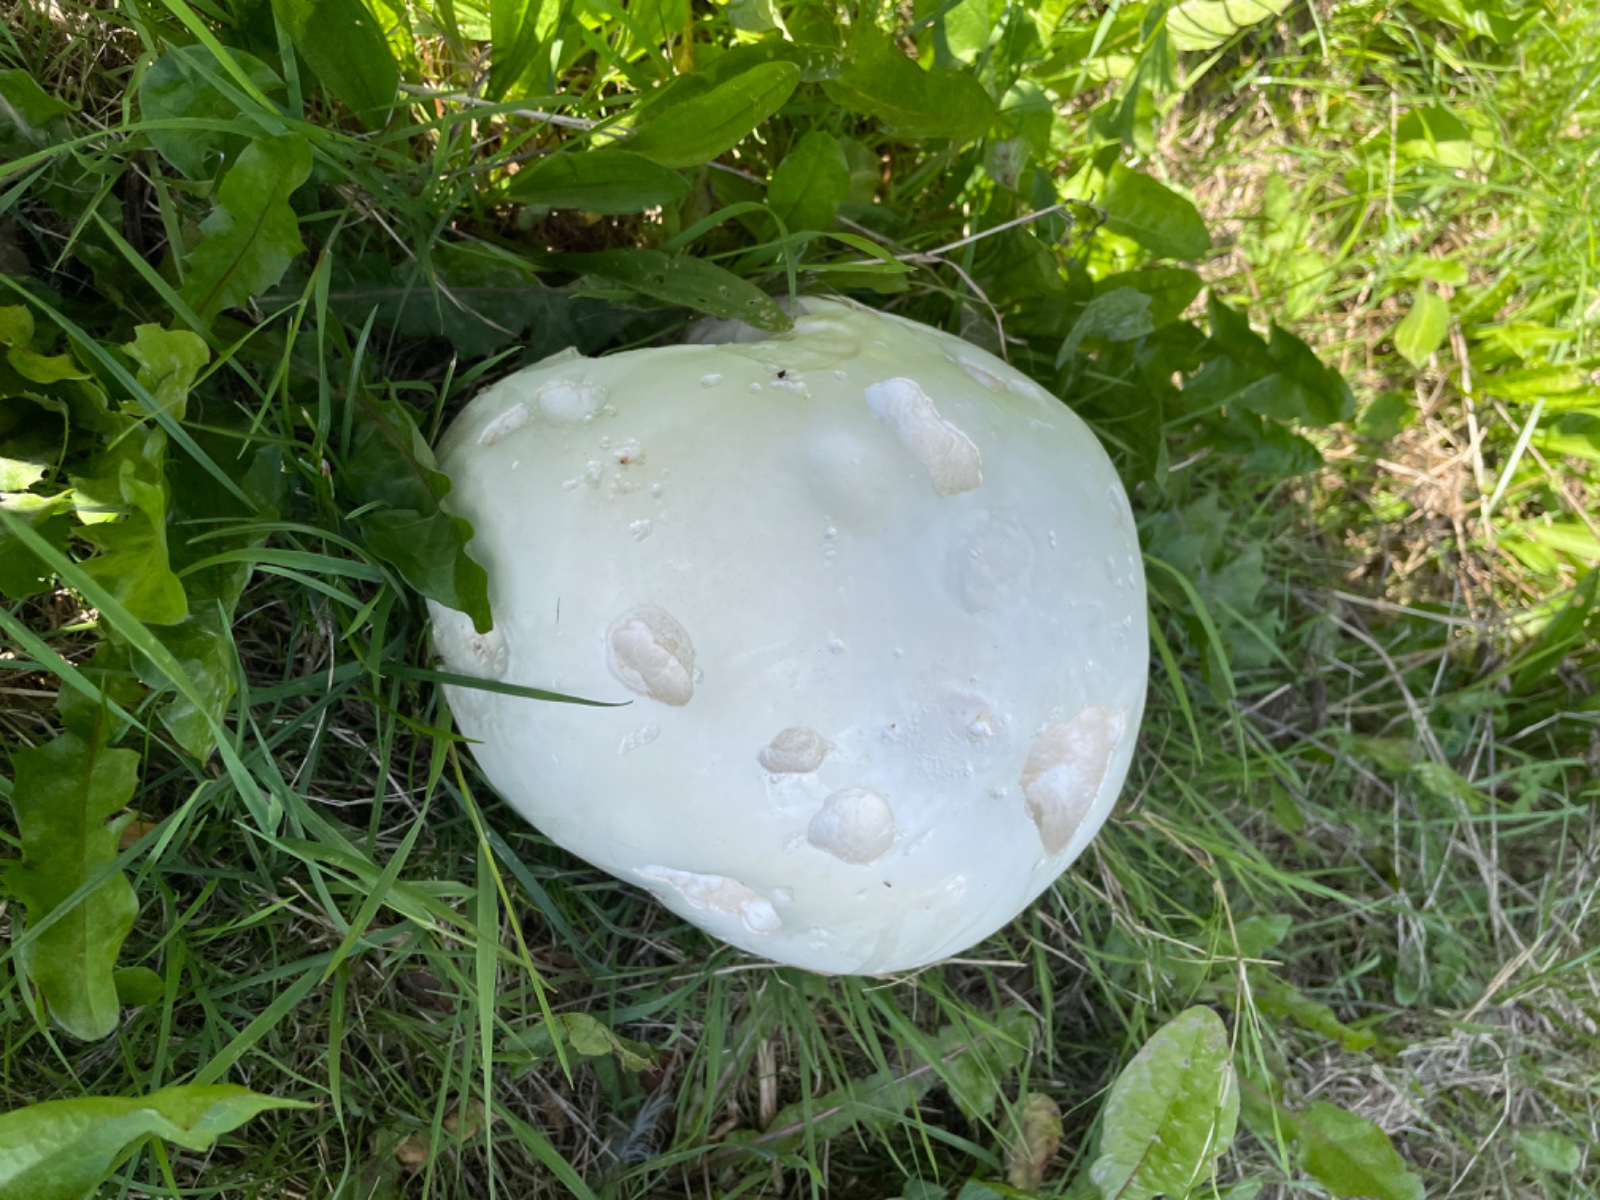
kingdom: Fungi
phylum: Basidiomycota
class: Agaricomycetes
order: Agaricales
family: Lycoperdaceae
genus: Calvatia
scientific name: Calvatia gigantea
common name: kæmpestøvbold
